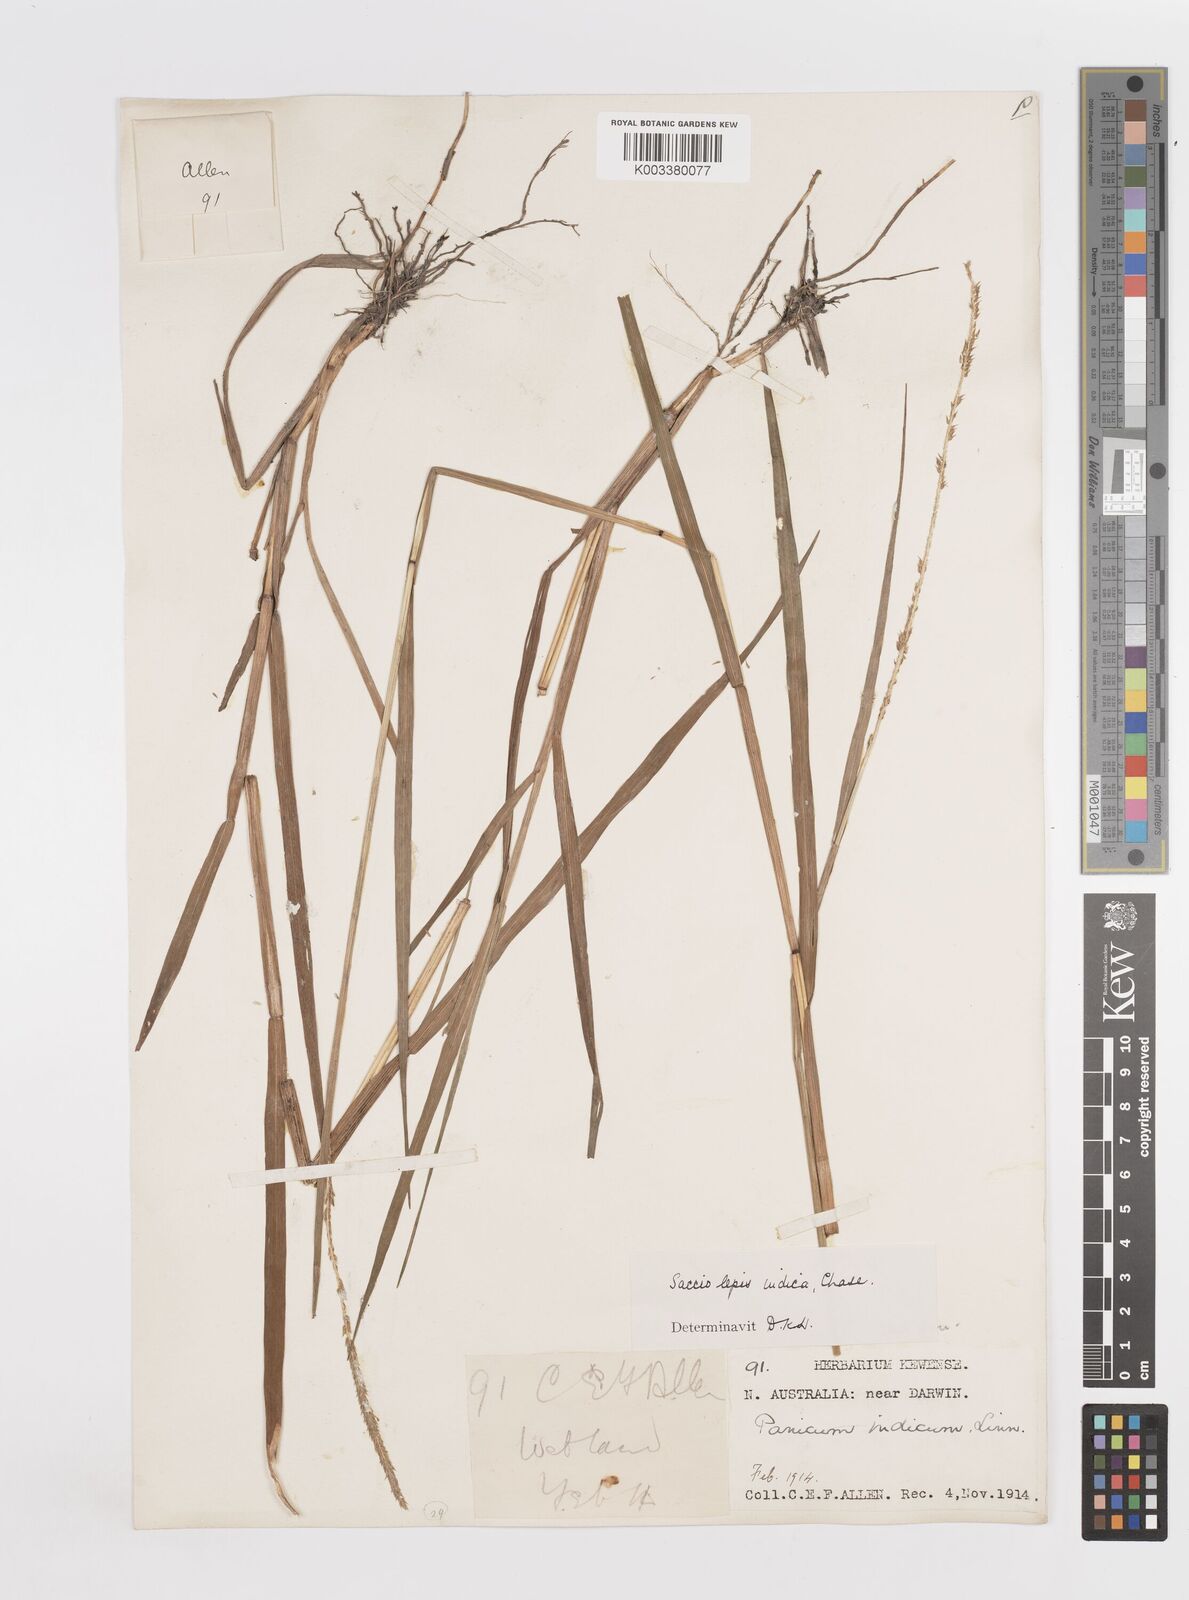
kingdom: Plantae
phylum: Tracheophyta
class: Liliopsida
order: Poales
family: Poaceae
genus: Sacciolepis
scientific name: Sacciolepis indica
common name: Glenwoodgrass
